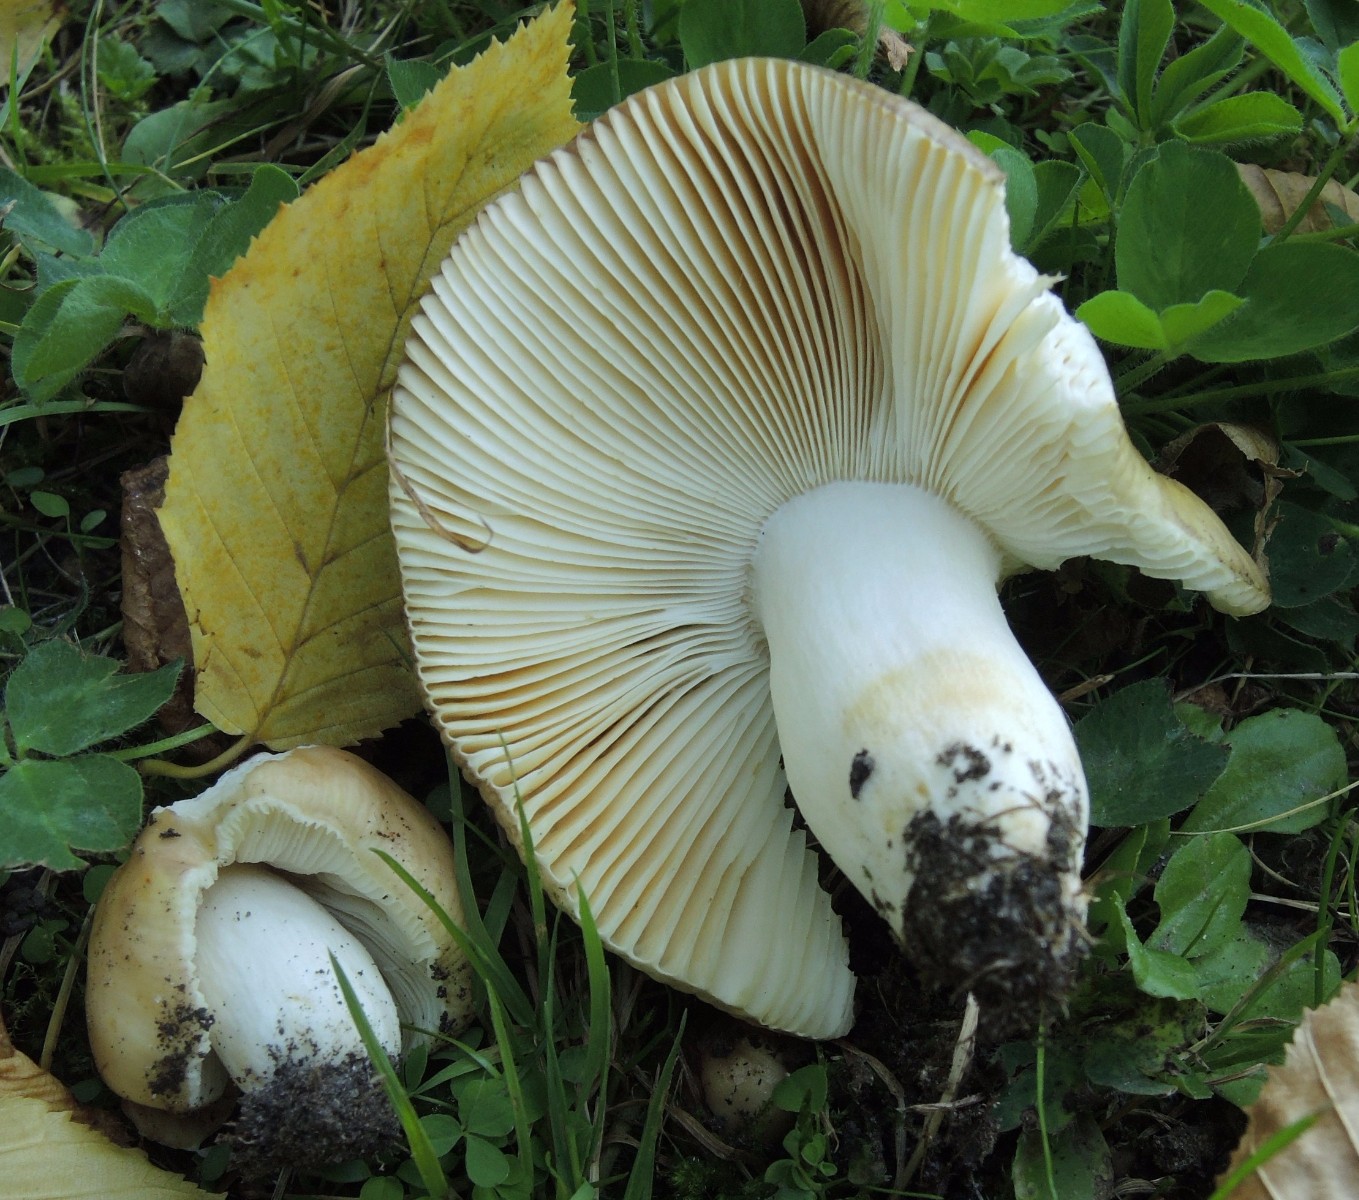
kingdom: Fungi
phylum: Basidiomycota
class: Agaricomycetes
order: Russulales
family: Russulaceae
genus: Russula
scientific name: Russula carpini
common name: avnbøg-skørhat
